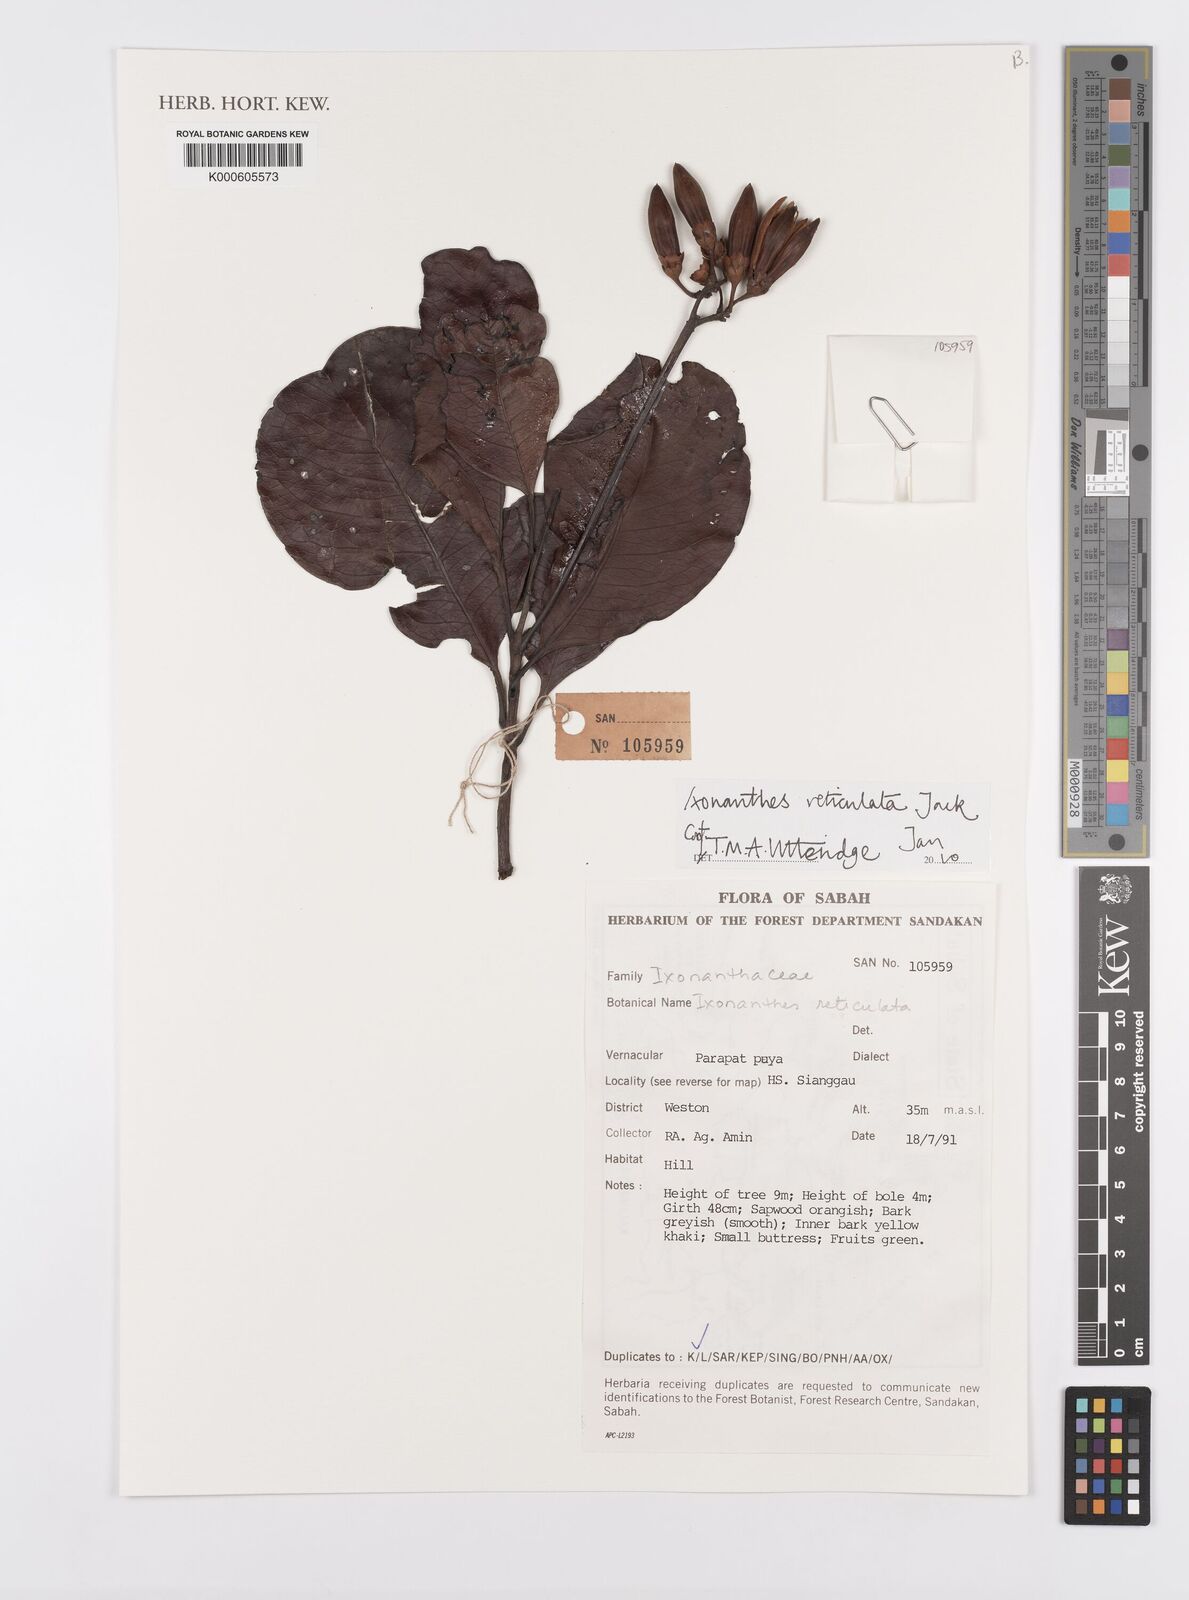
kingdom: Plantae
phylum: Tracheophyta
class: Magnoliopsida
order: Malpighiales
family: Ixonanthaceae
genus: Ixonanthes
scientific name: Ixonanthes reticulata
